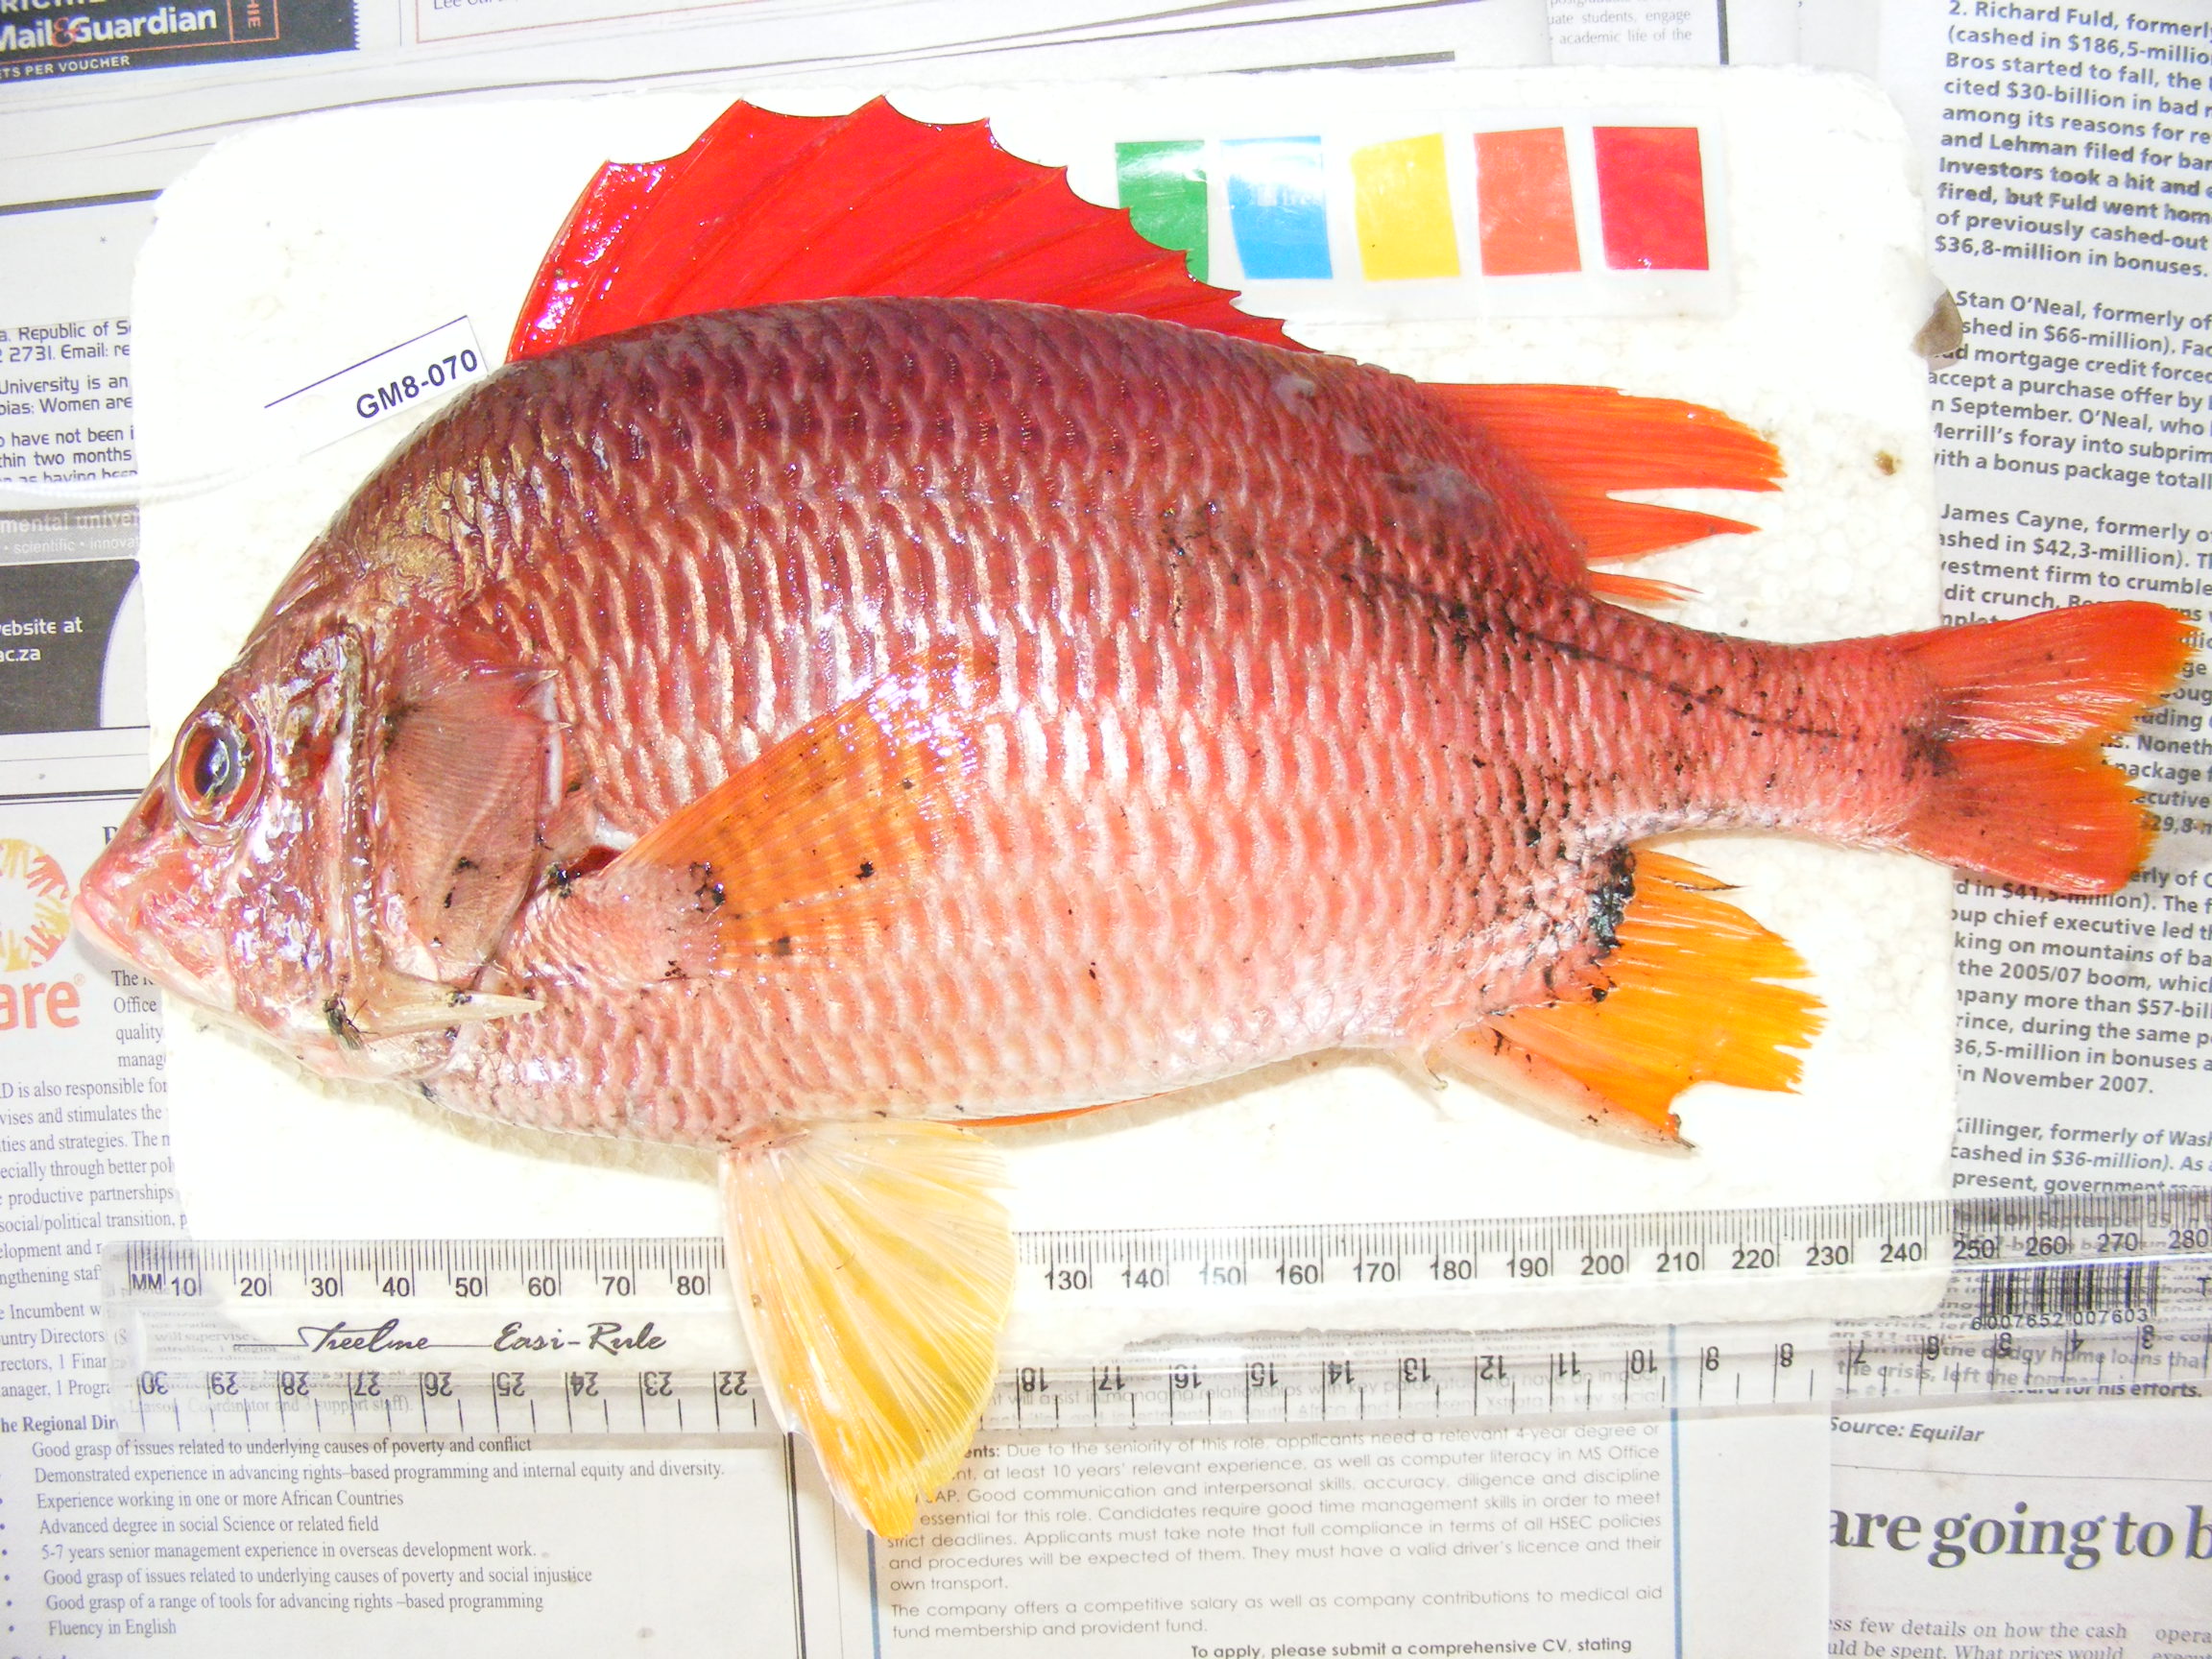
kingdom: Animalia
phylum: Chordata
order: Beryciformes
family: Holocentridae
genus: Sargocentron
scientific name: Sargocentron spiniferum
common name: Giant squirrelfish
